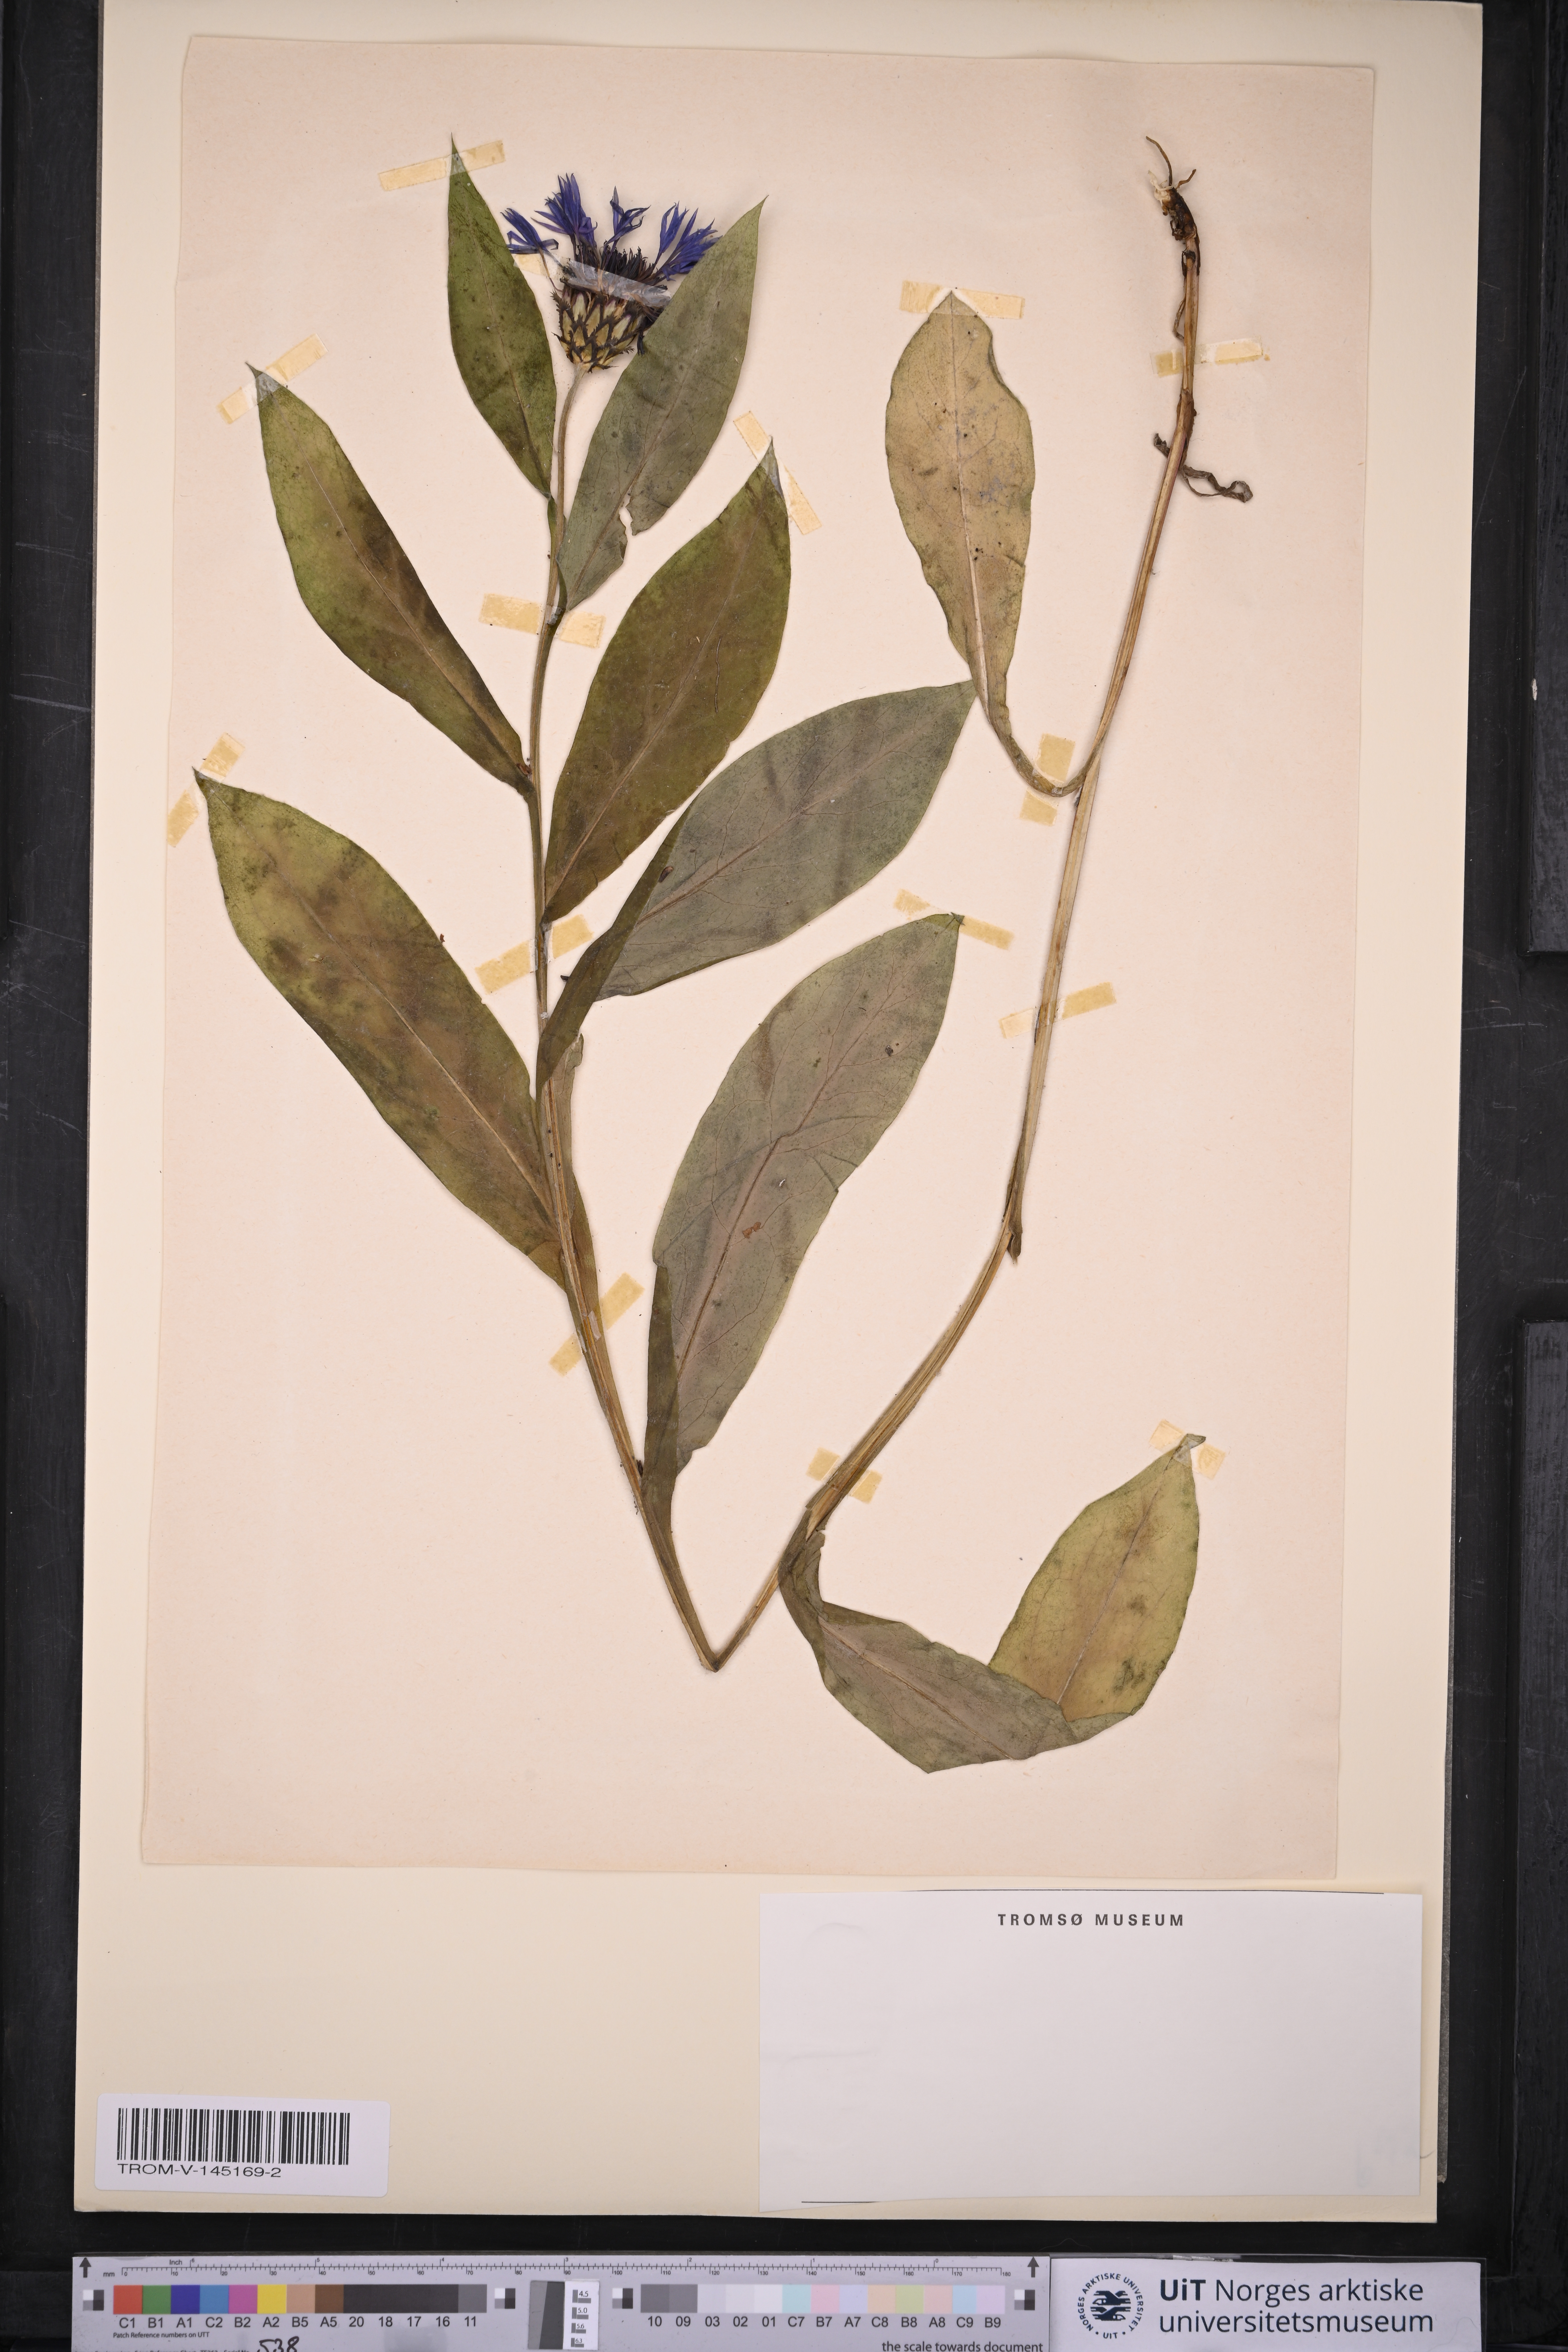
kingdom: Plantae
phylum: Tracheophyta
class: Magnoliopsida
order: Asterales
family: Asteraceae
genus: Centaurea
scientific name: Centaurea montana
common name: Perennial cornflower
